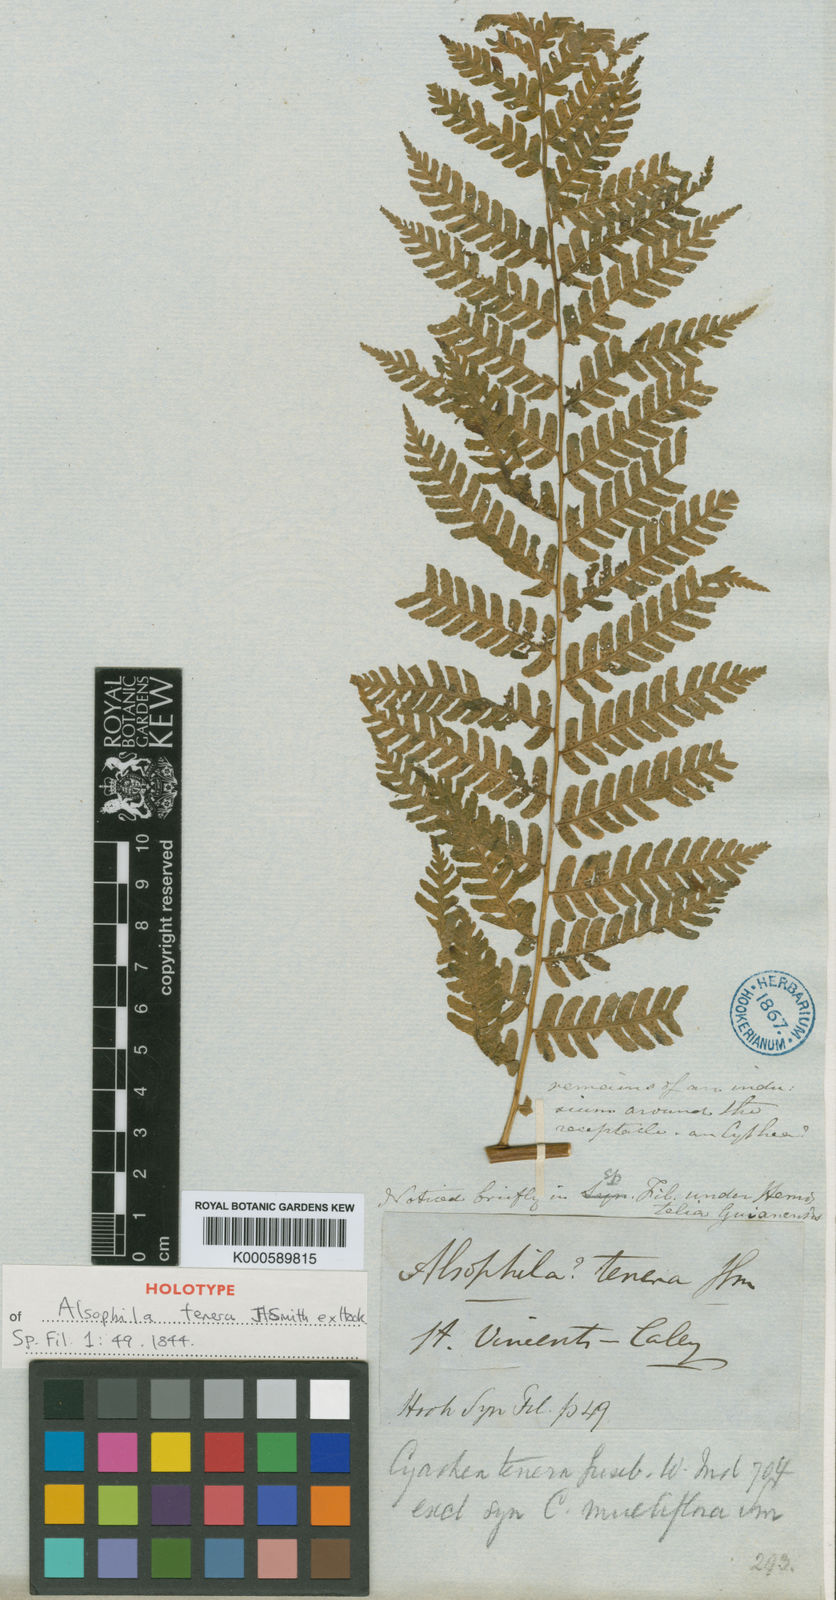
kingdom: Plantae
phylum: Tracheophyta
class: Polypodiopsida
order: Cyatheales
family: Cyatheaceae
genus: Cyathea
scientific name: Cyathea tenera
